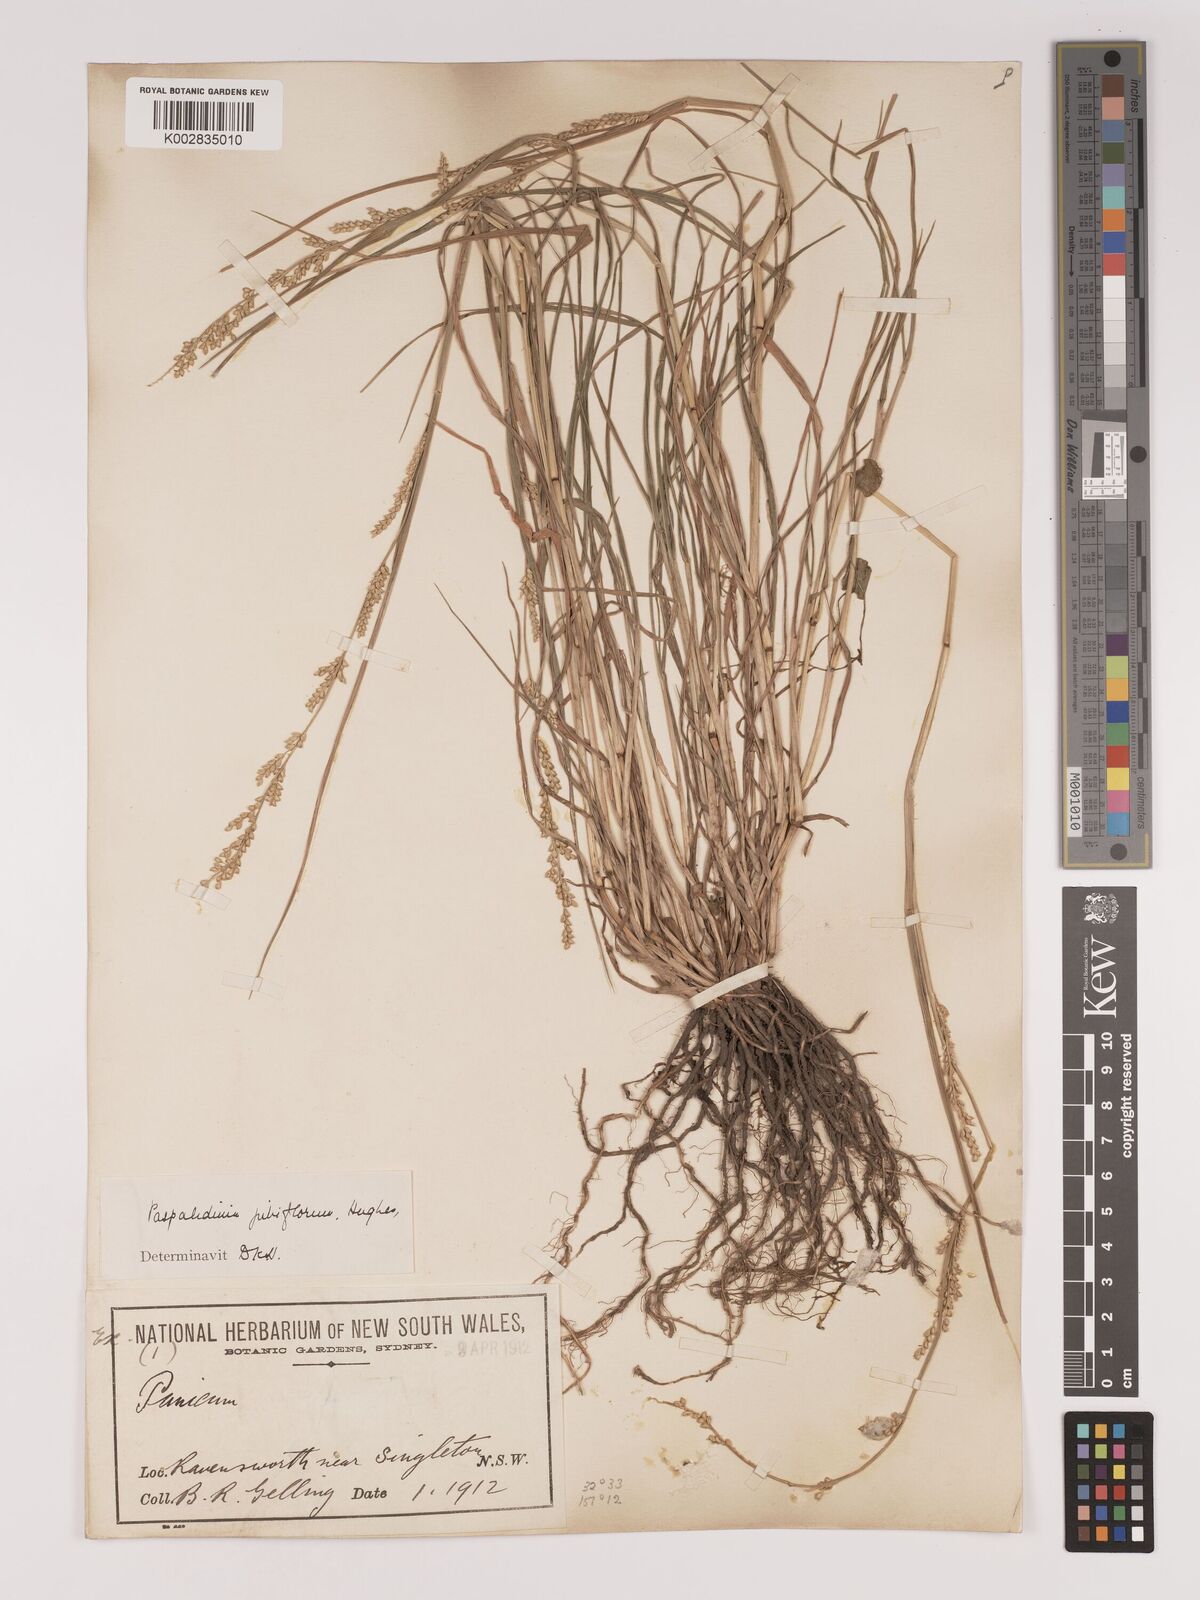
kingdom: Plantae
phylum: Tracheophyta
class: Liliopsida
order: Poales
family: Poaceae
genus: Setaria
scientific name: Setaria
